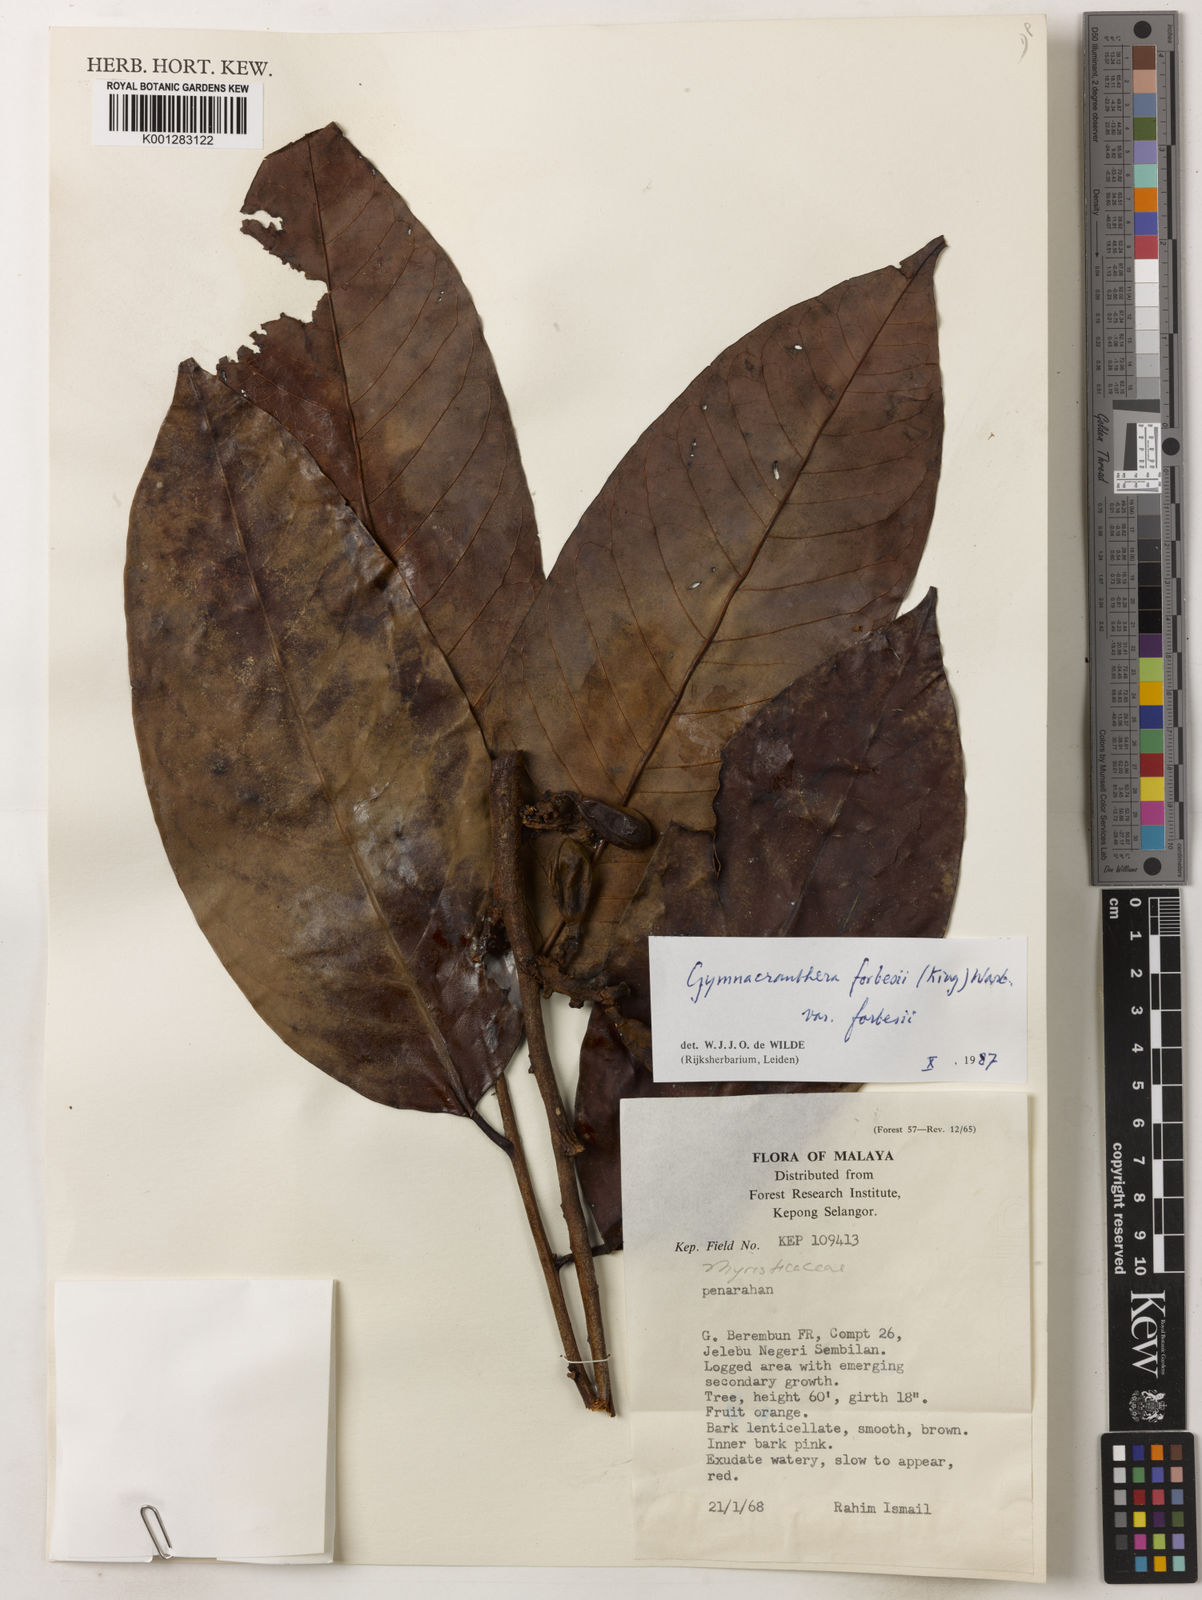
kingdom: Plantae
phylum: Tracheophyta
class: Magnoliopsida
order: Magnoliales
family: Myristicaceae
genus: Gymnacranthera
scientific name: Gymnacranthera forbesii
